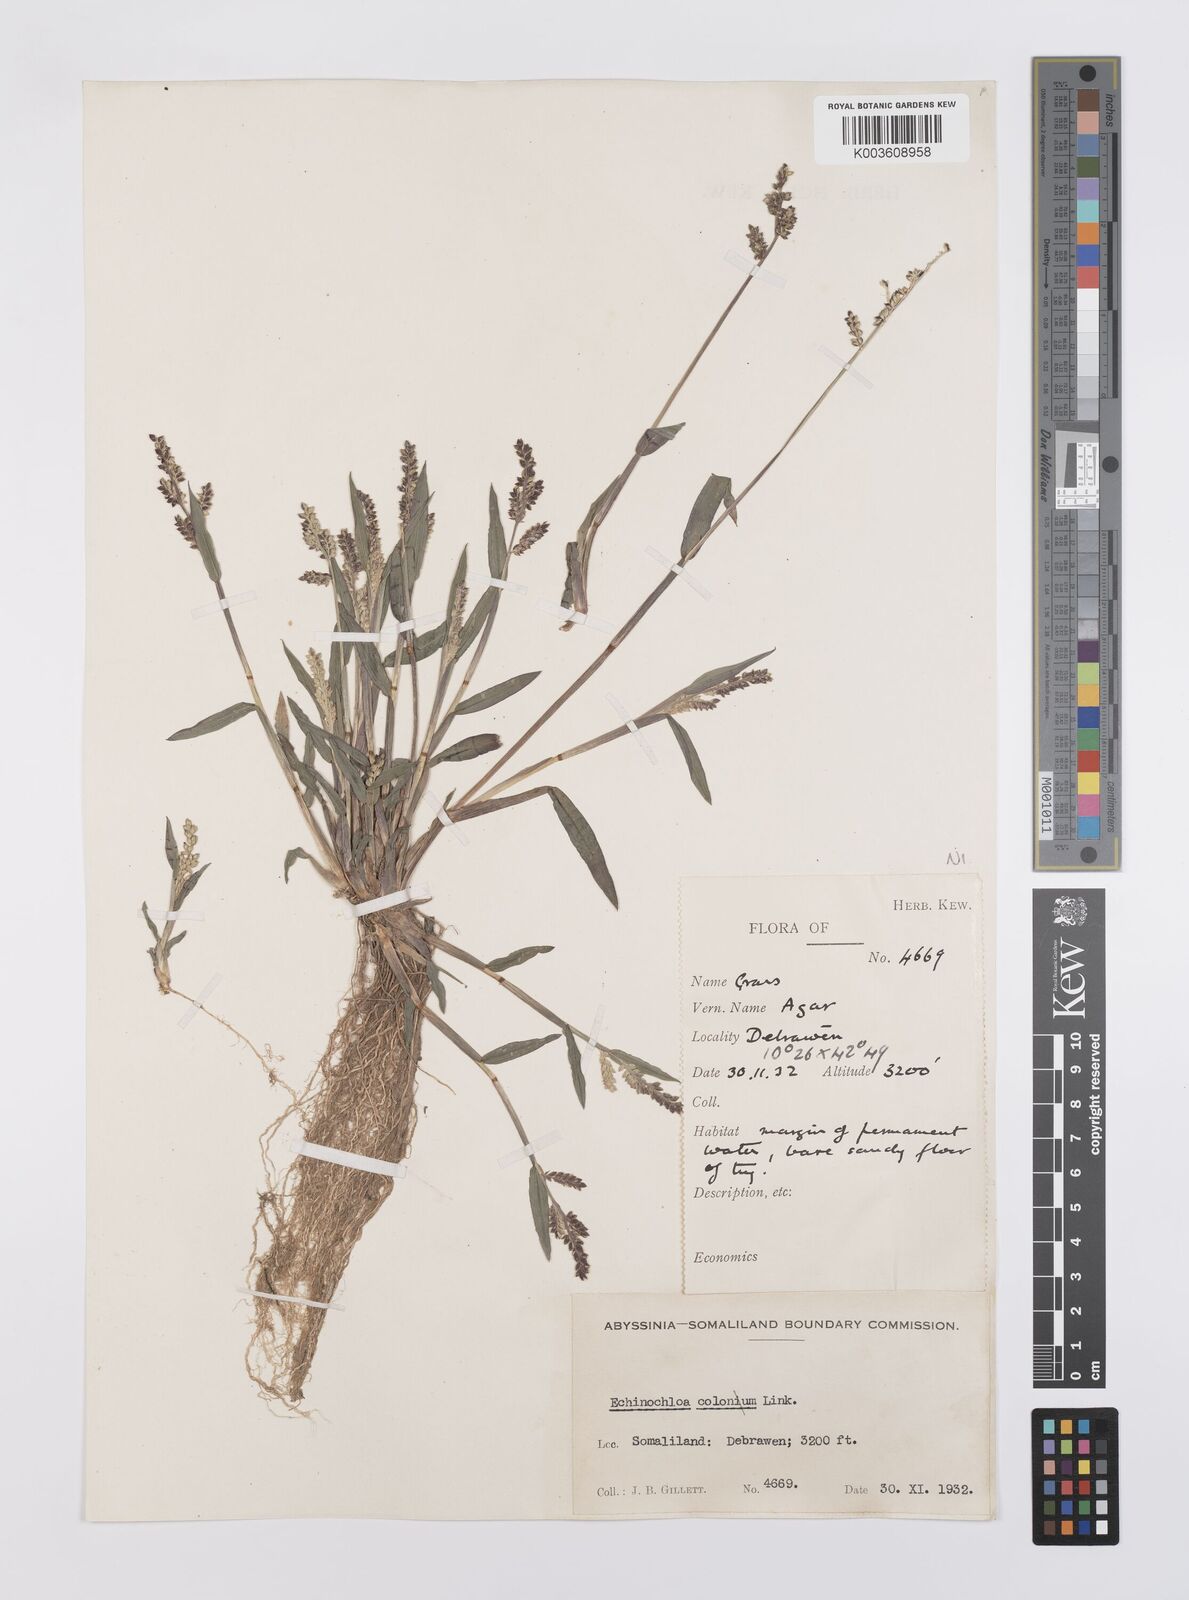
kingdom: Plantae
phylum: Tracheophyta
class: Liliopsida
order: Poales
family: Poaceae
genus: Echinochloa
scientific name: Echinochloa colonum
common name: Jungle rice
